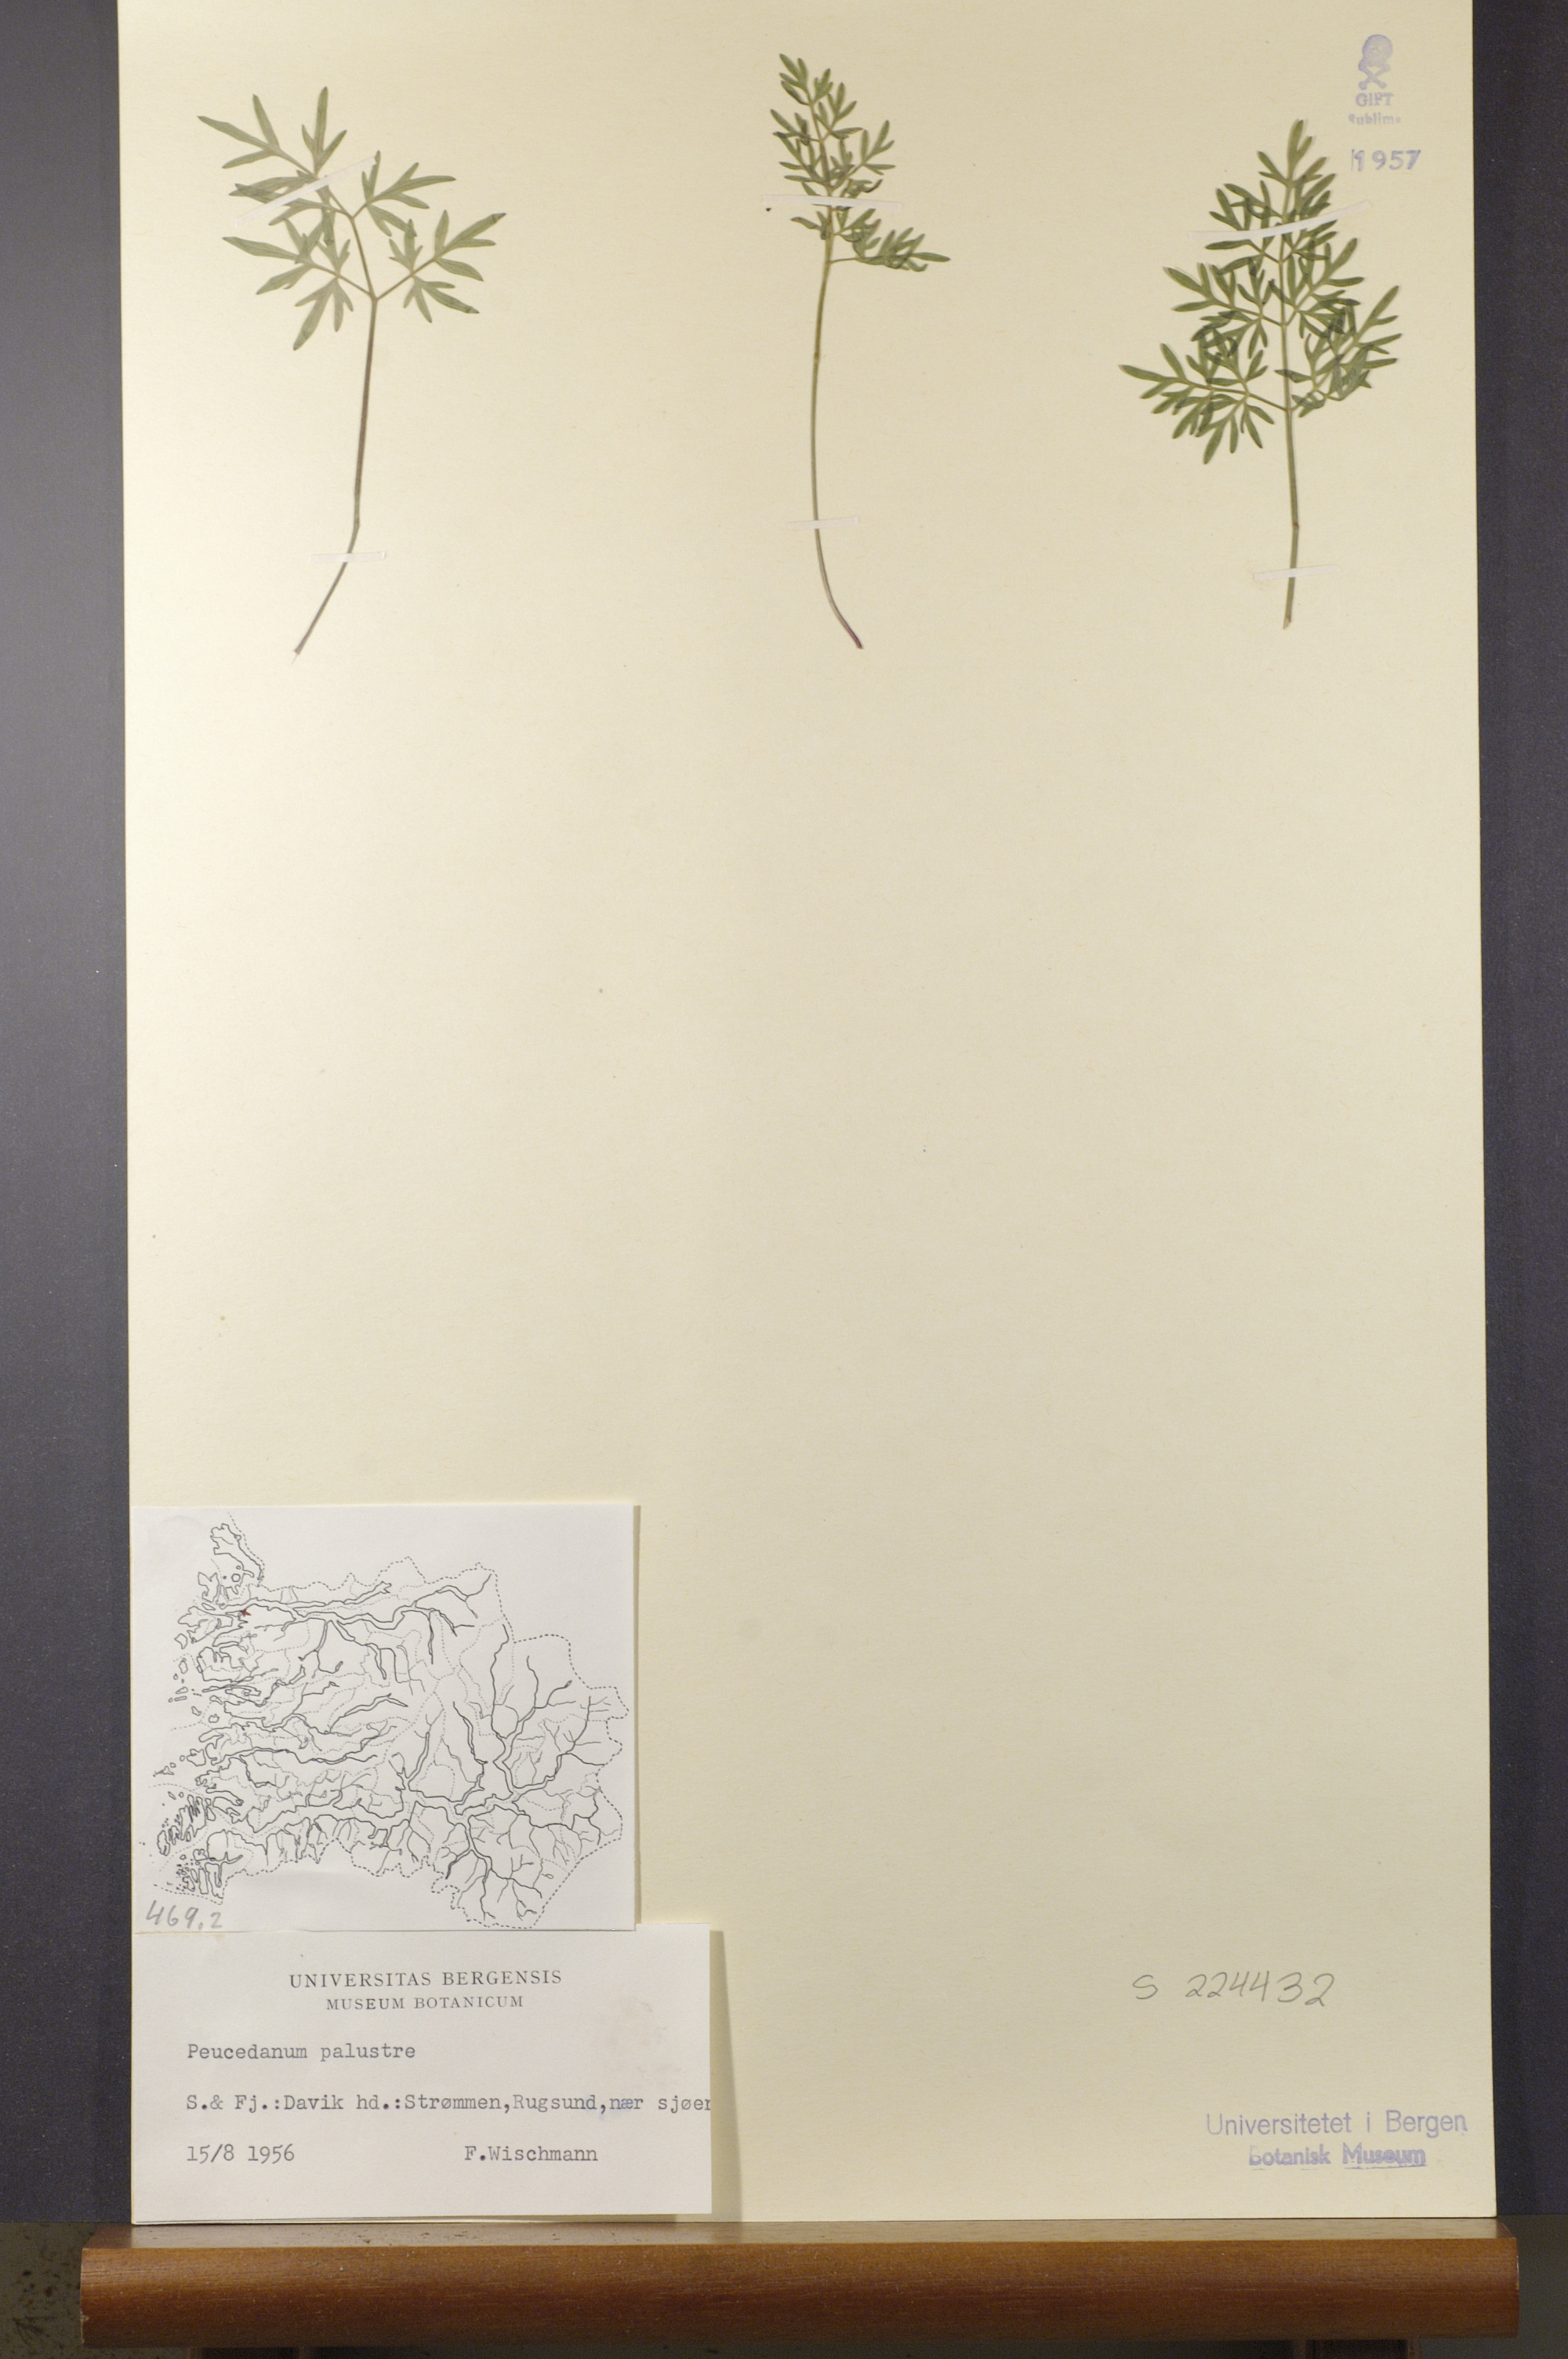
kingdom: Plantae
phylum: Tracheophyta
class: Magnoliopsida
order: Apiales
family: Apiaceae
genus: Thysselinum
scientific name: Thysselinum palustre
